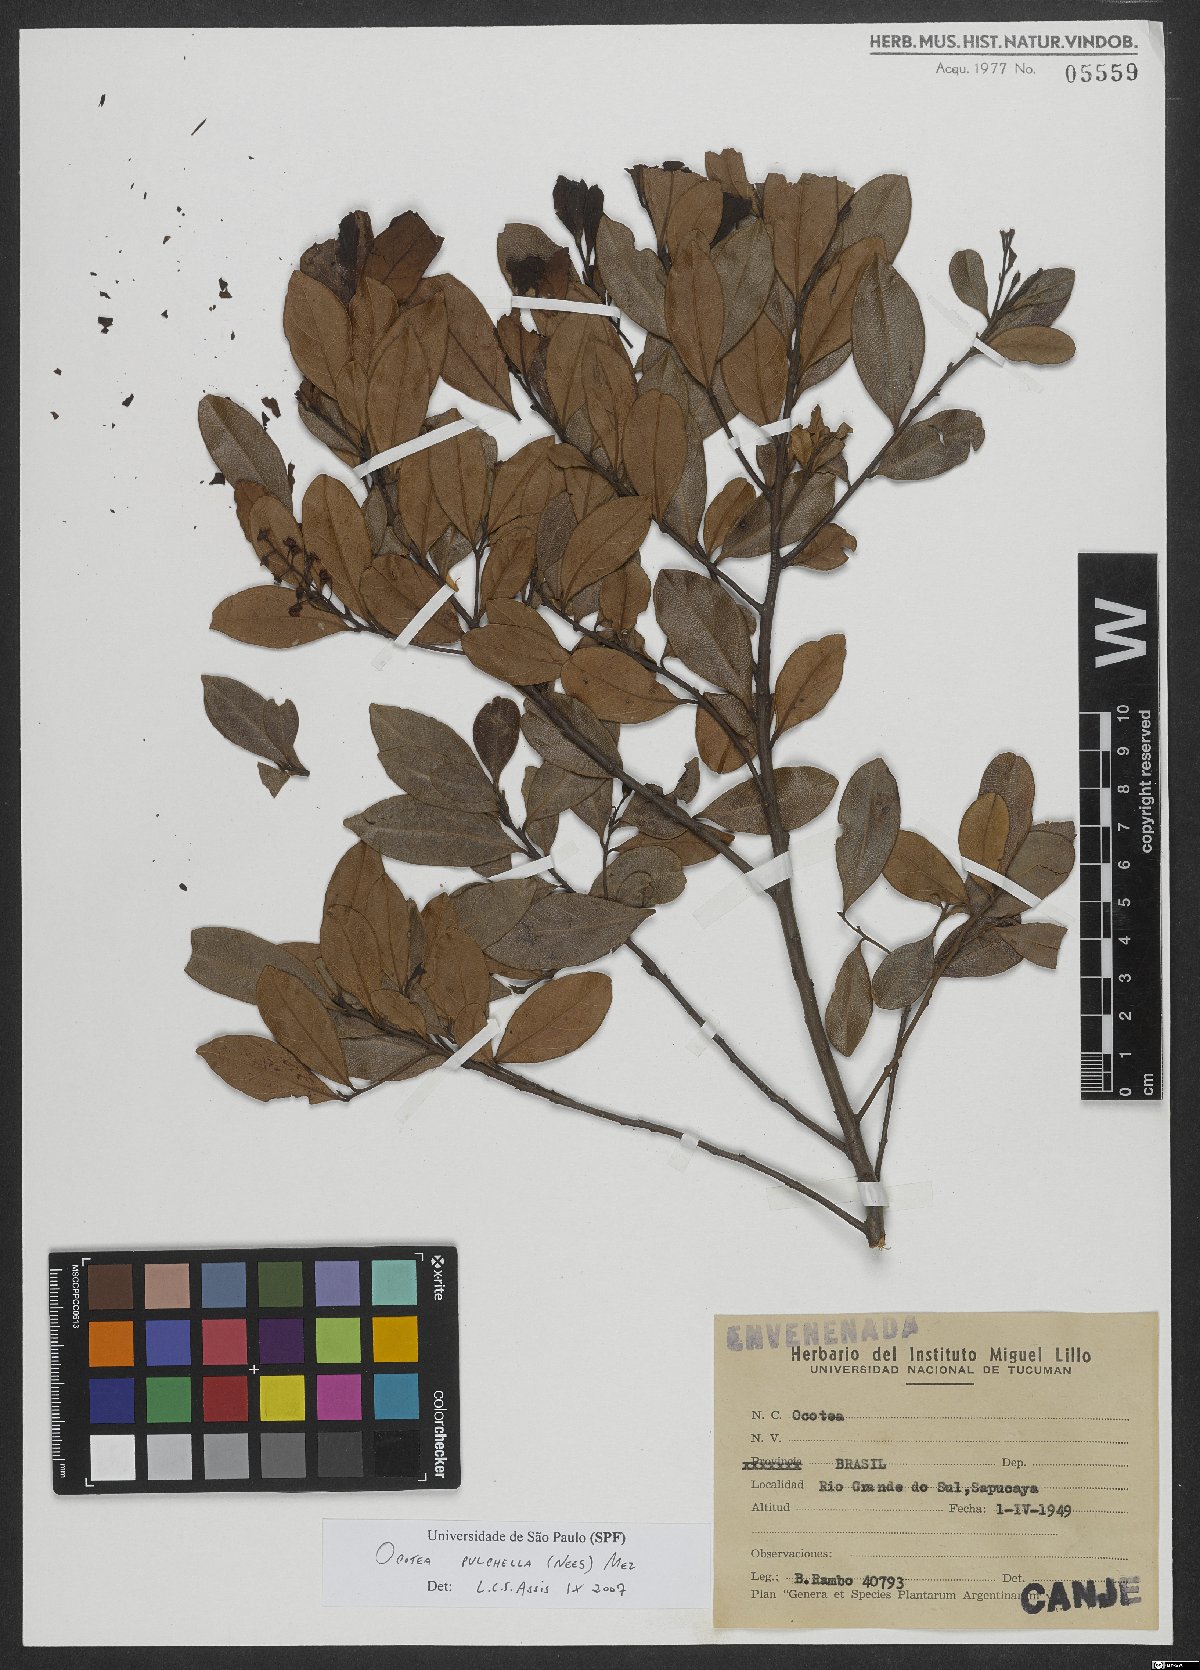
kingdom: Plantae
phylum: Tracheophyta
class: Magnoliopsida
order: Laurales
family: Lauraceae
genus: Mespilodaphne
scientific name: Mespilodaphne pulchella
